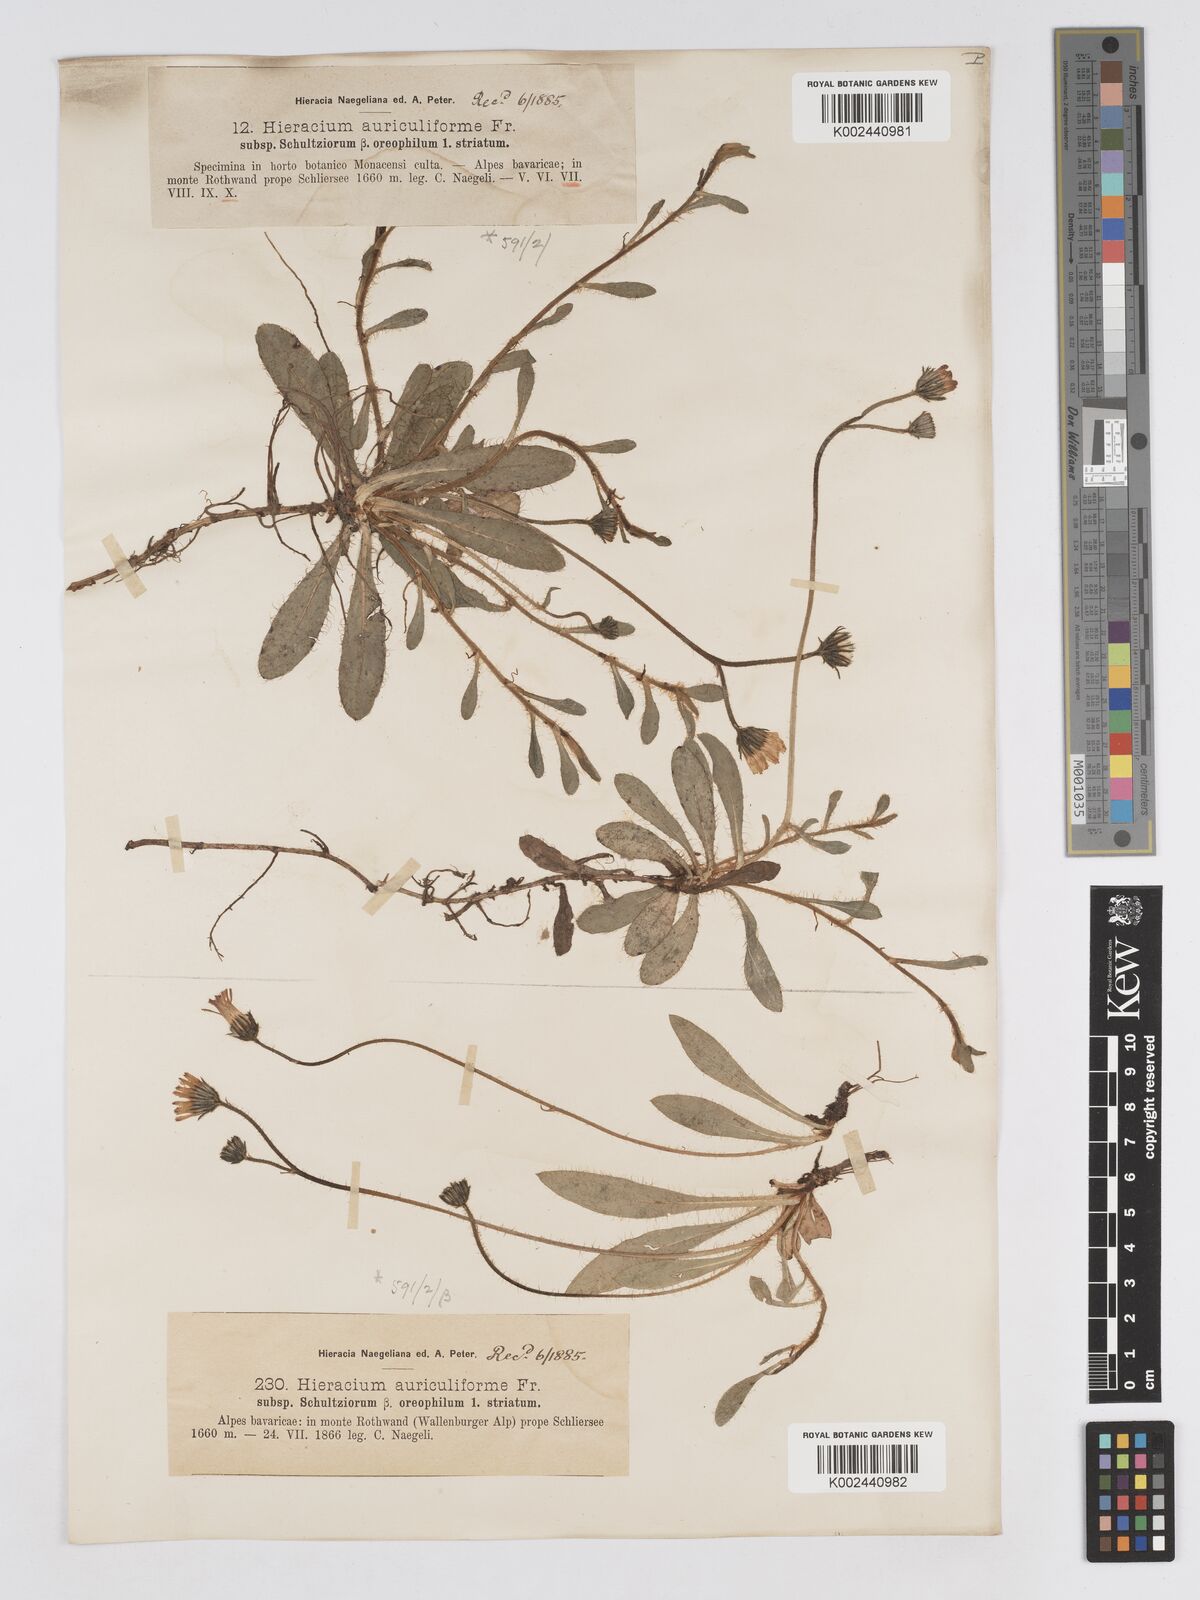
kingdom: Plantae
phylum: Tracheophyta
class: Magnoliopsida
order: Asterales
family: Asteraceae
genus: Pilosella
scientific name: Pilosella schultesii
